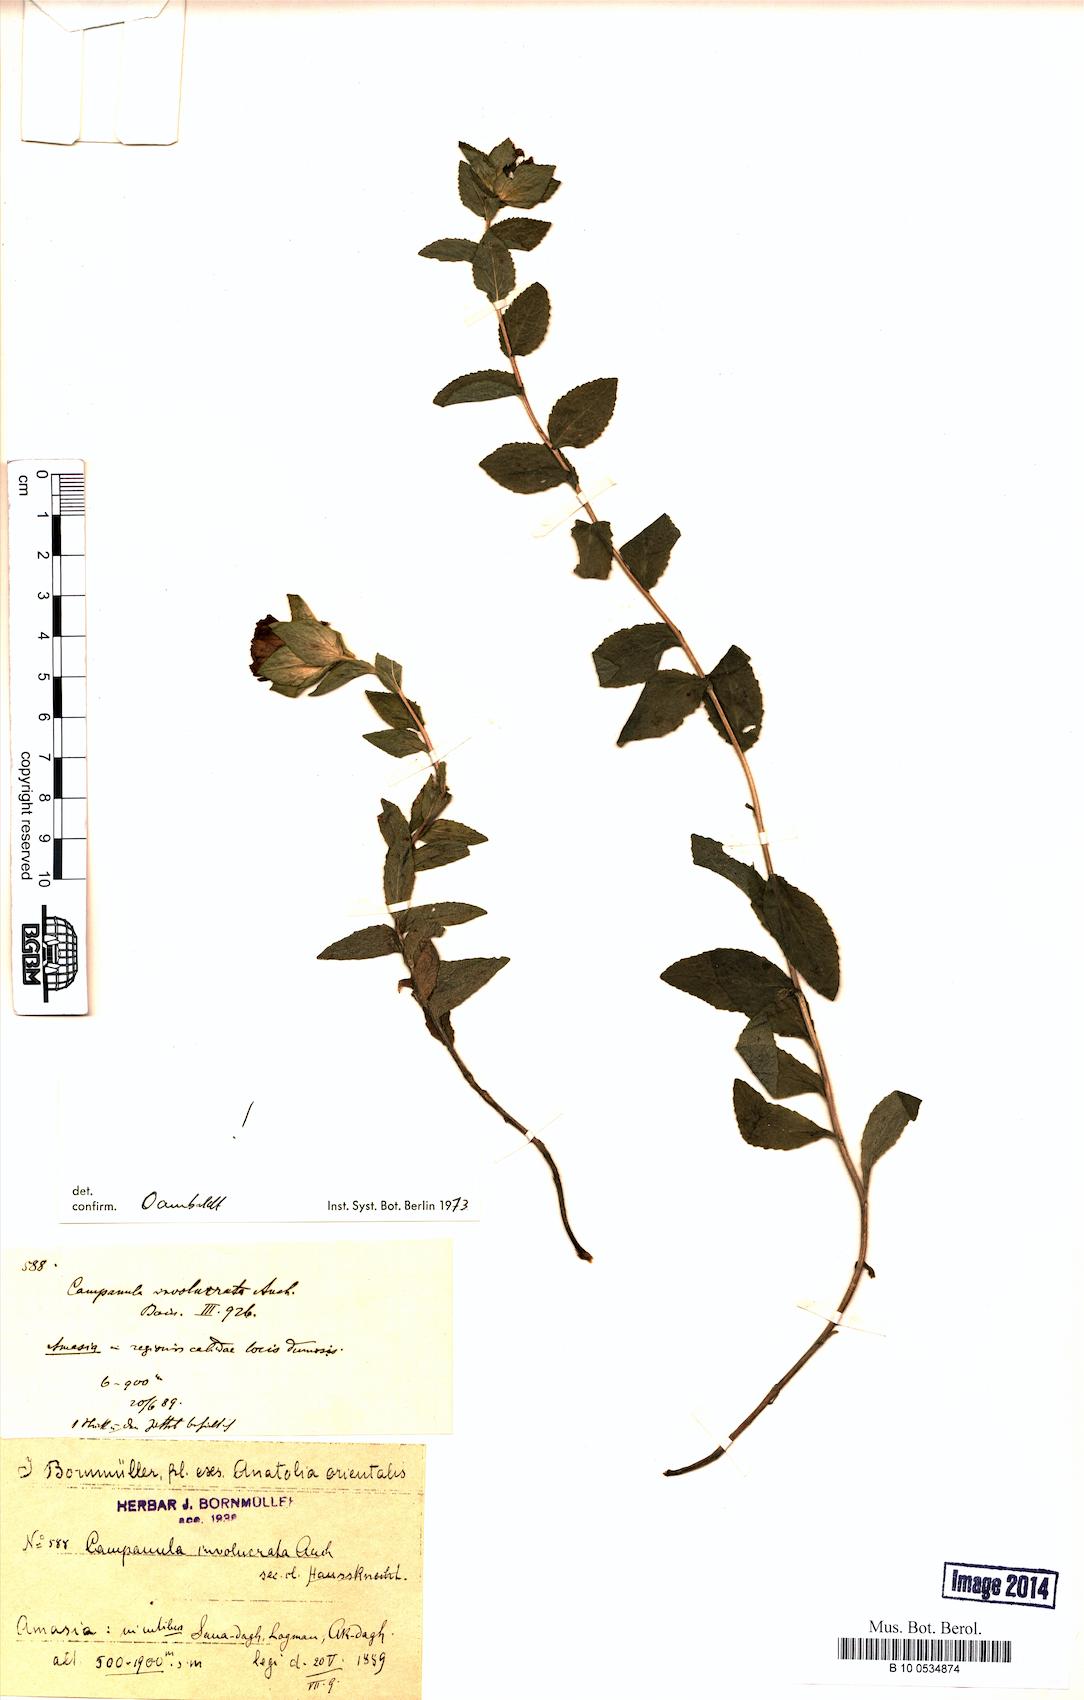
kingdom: Plantae
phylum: Tracheophyta
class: Magnoliopsida
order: Asterales
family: Campanulaceae
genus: Campanula
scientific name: Campanula involucrata
